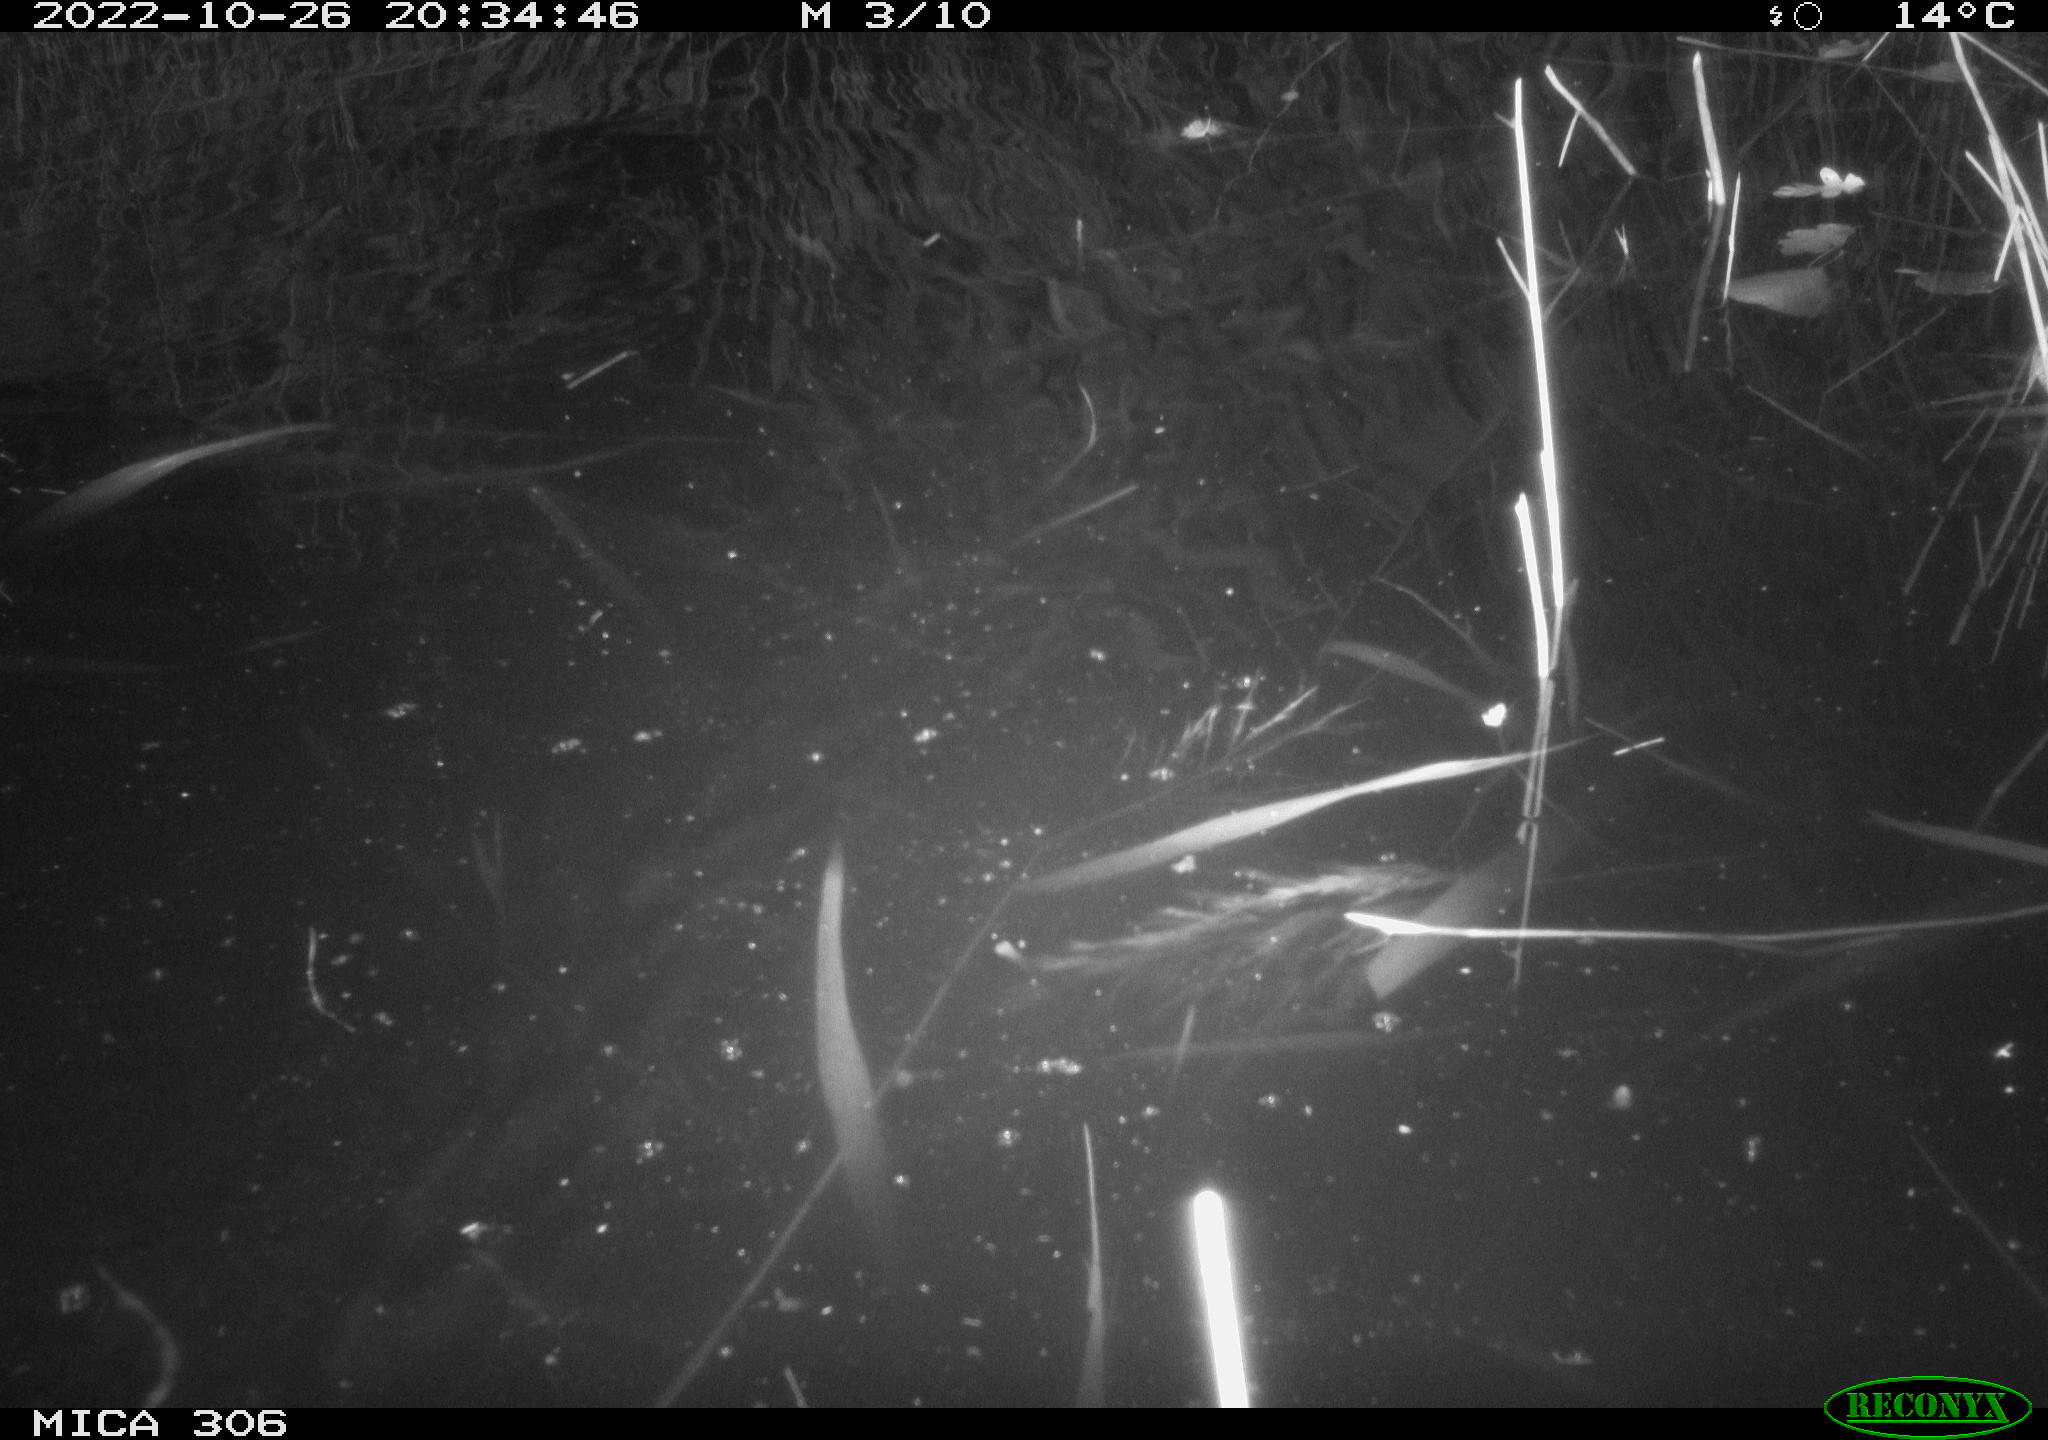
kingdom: Animalia
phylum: Chordata
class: Mammalia
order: Rodentia
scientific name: Rodentia
